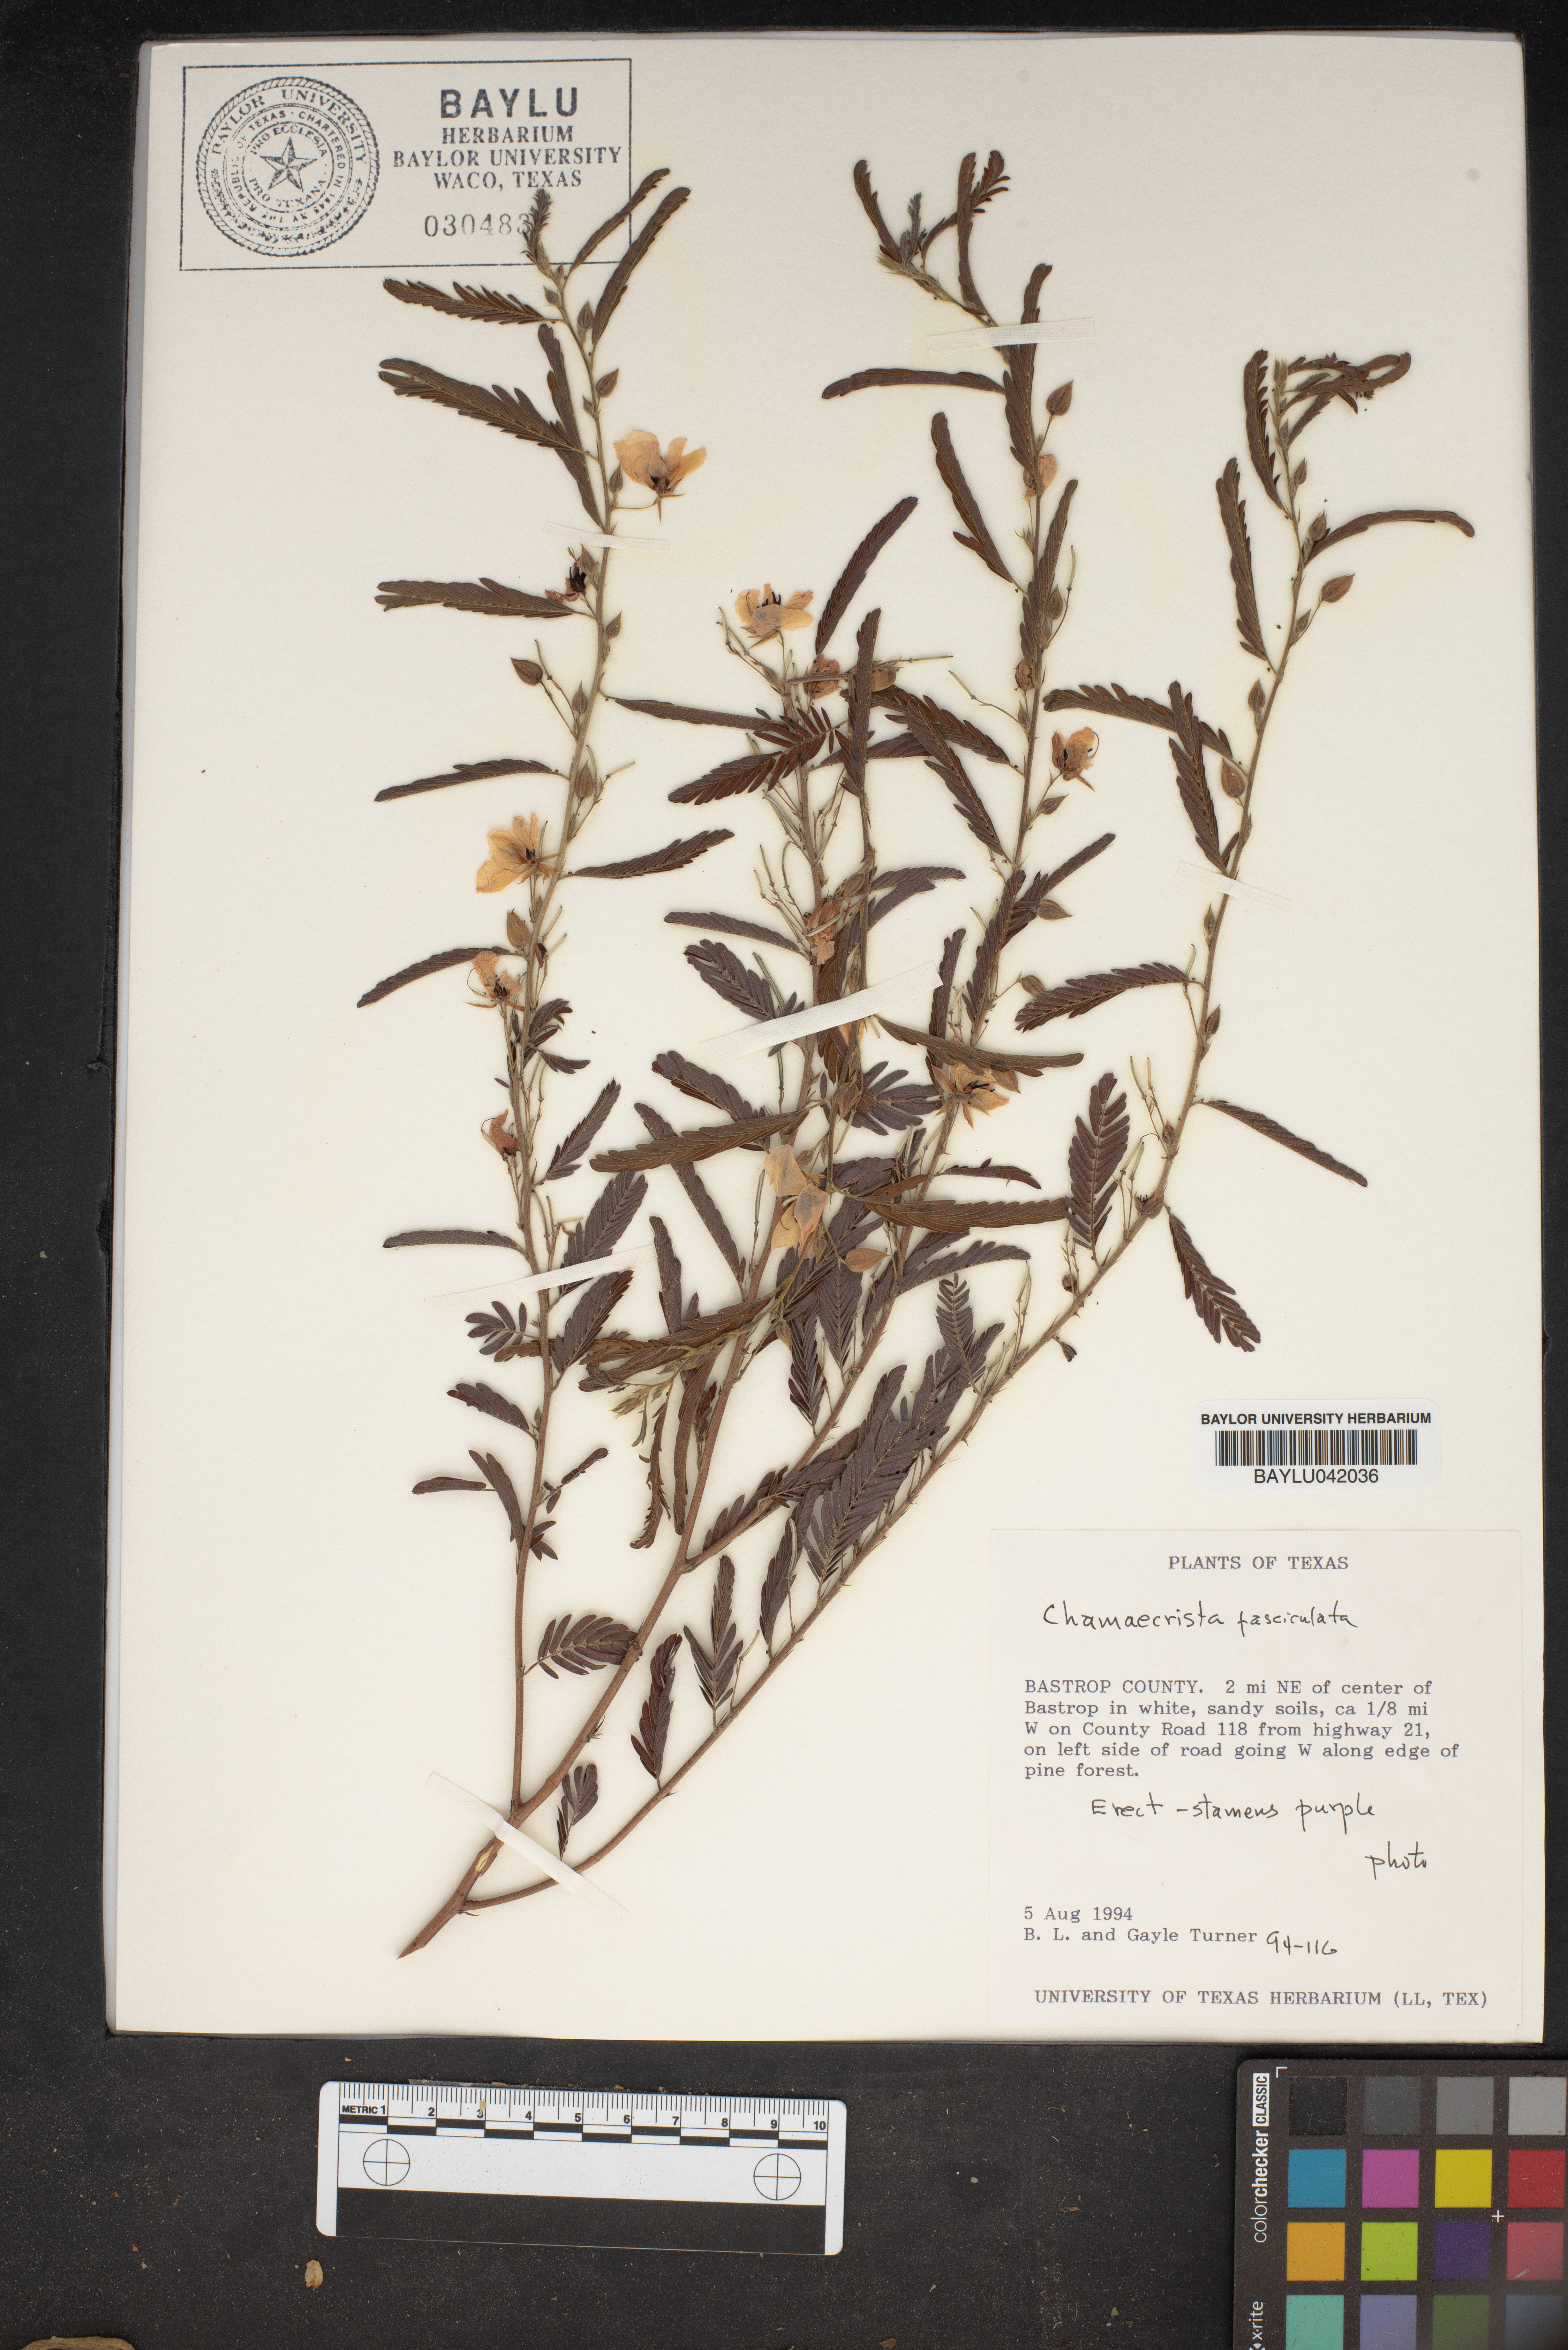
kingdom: Plantae
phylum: Tracheophyta
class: Magnoliopsida
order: Fabales
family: Fabaceae
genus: Chamaecrista
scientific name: Chamaecrista fasciculata
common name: Golden cassia
